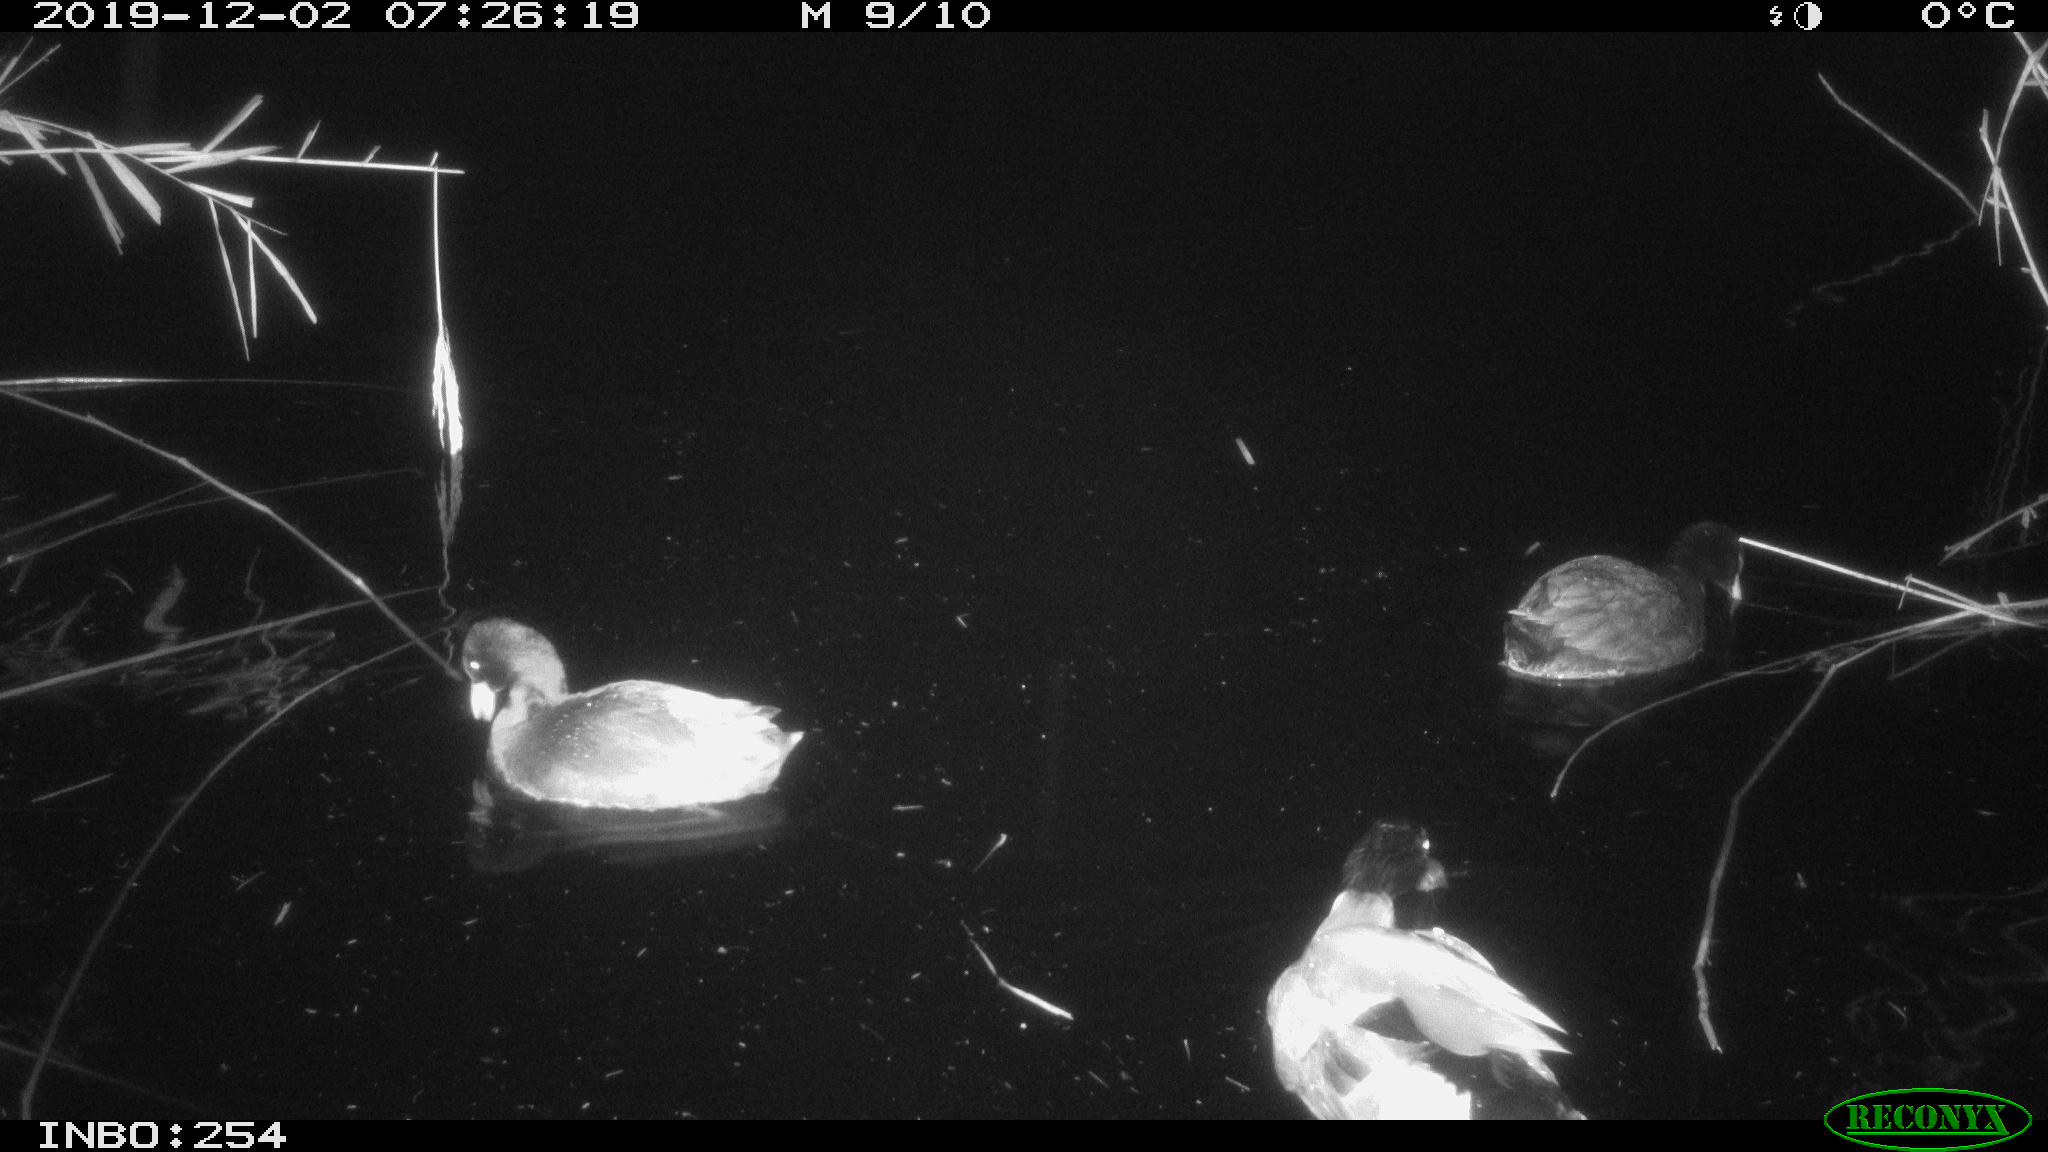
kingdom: Animalia
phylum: Chordata
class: Aves
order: Anseriformes
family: Anatidae
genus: Anas
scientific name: Anas platyrhynchos
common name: Mallard
